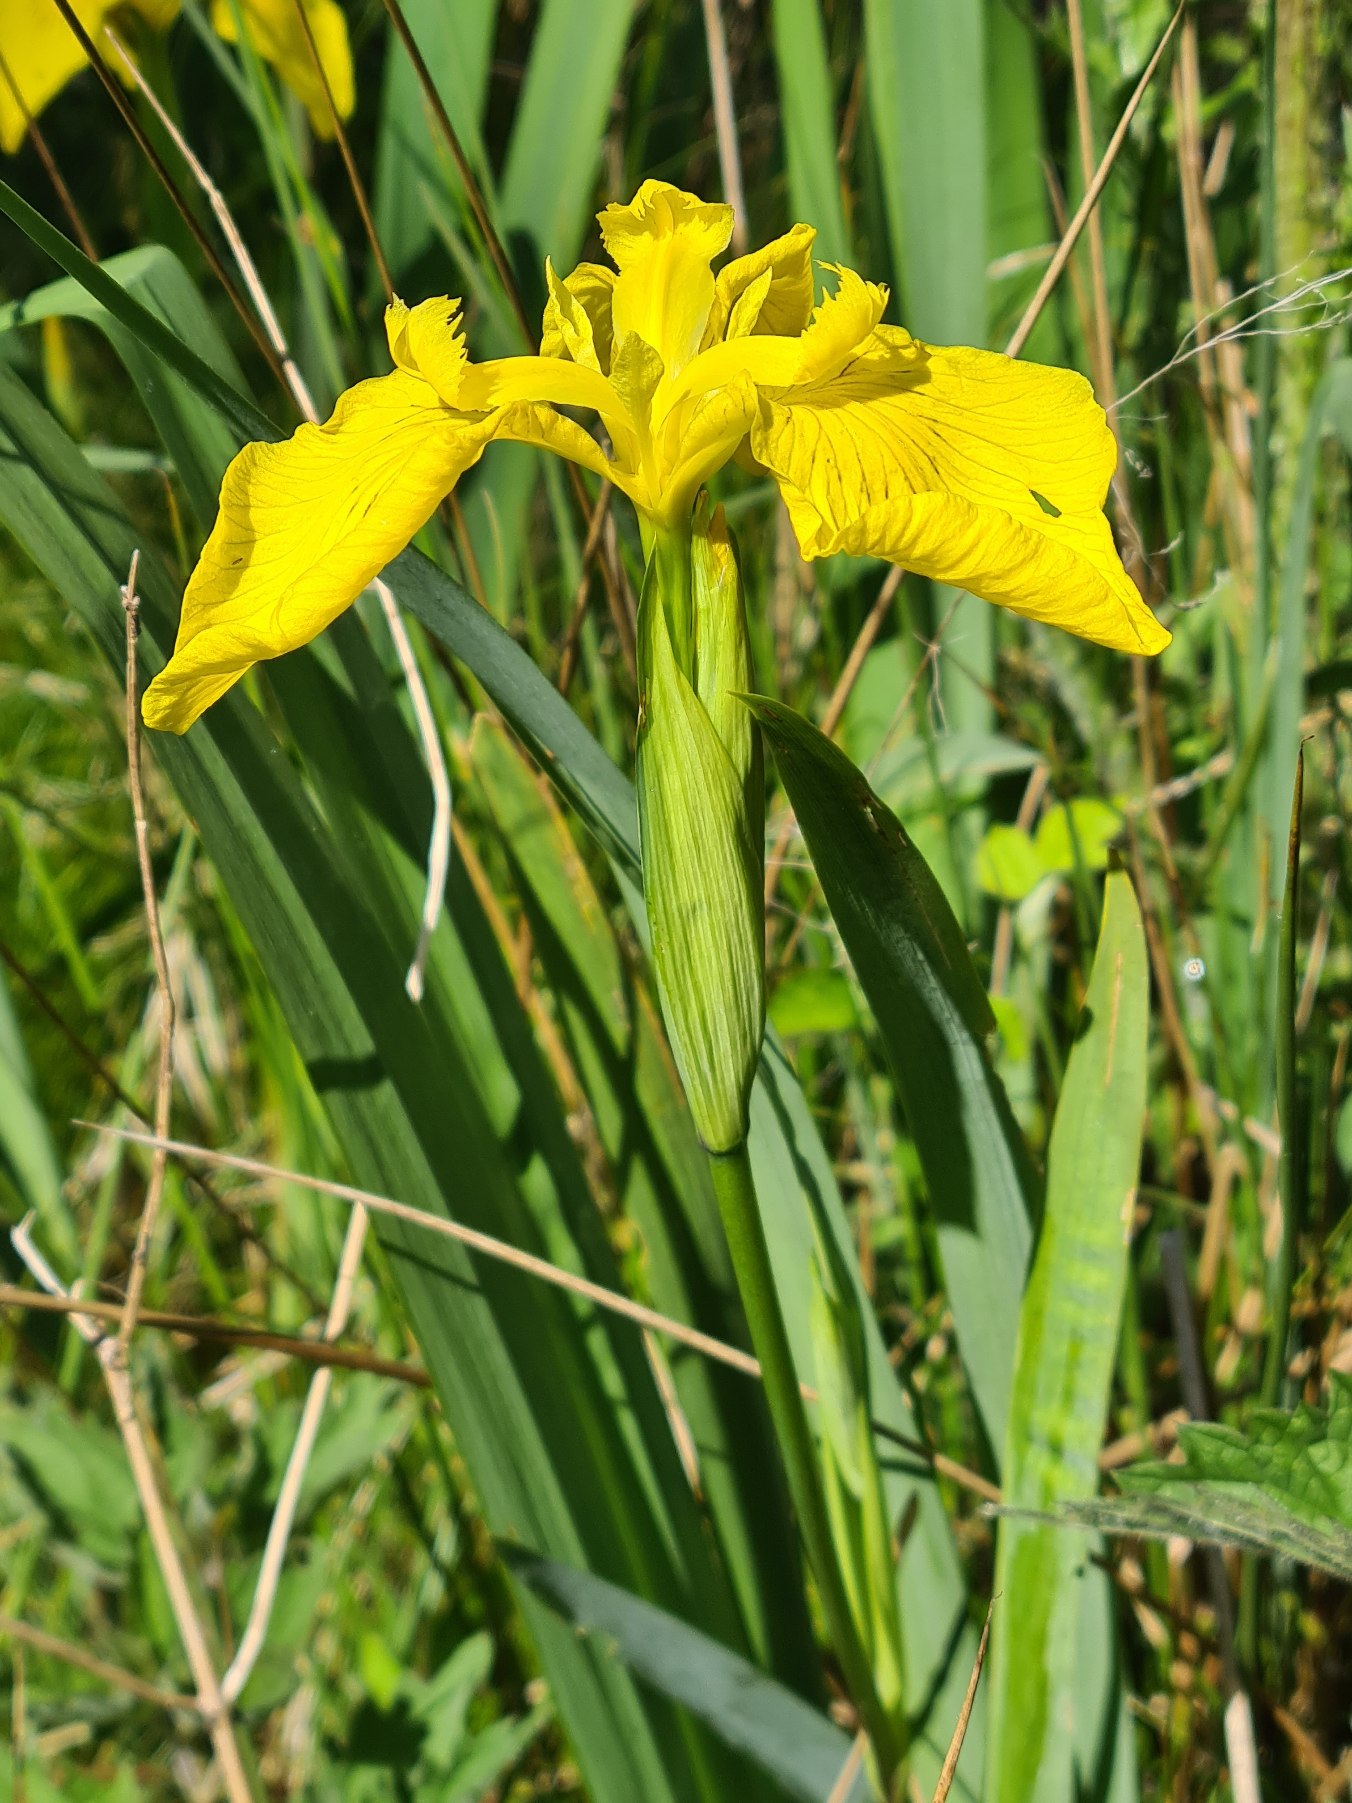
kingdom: Plantae
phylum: Tracheophyta
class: Liliopsida
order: Asparagales
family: Iridaceae
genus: Iris
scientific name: Iris pseudacorus
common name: Gul iris
